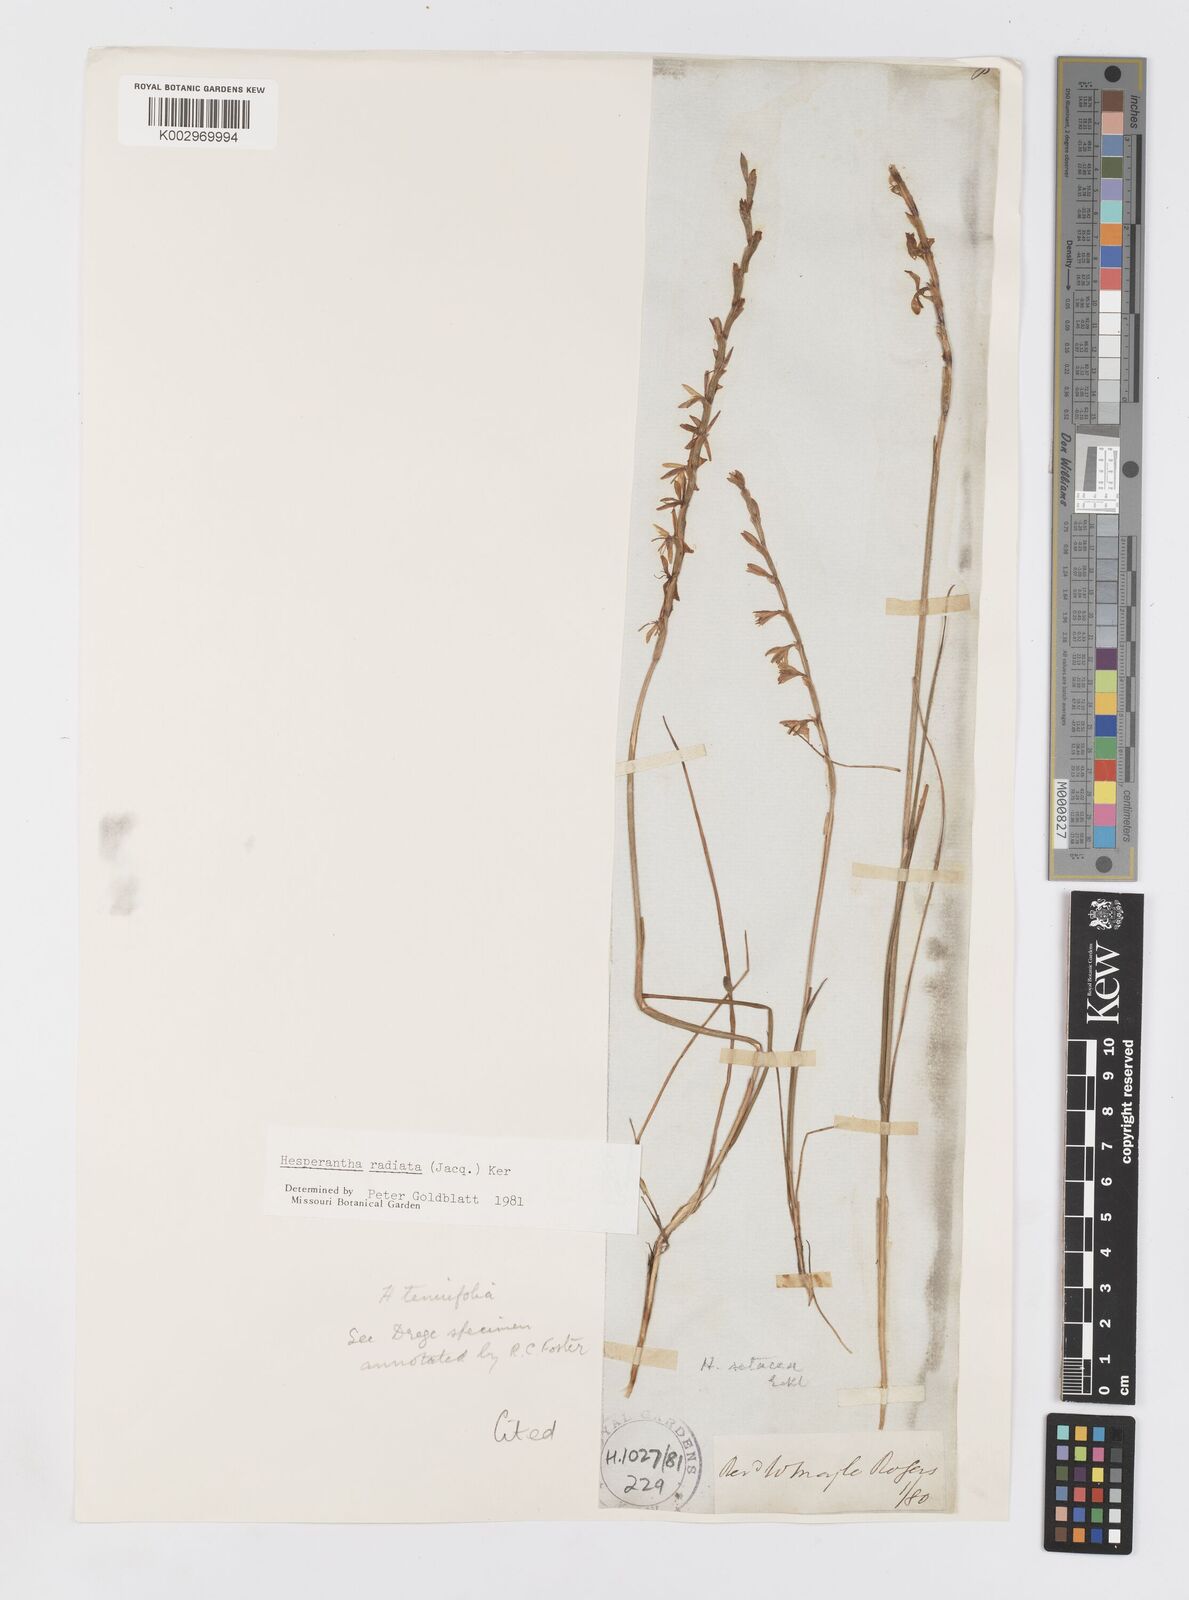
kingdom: Plantae
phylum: Tracheophyta
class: Liliopsida
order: Asparagales
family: Iridaceae
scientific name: Iridaceae
